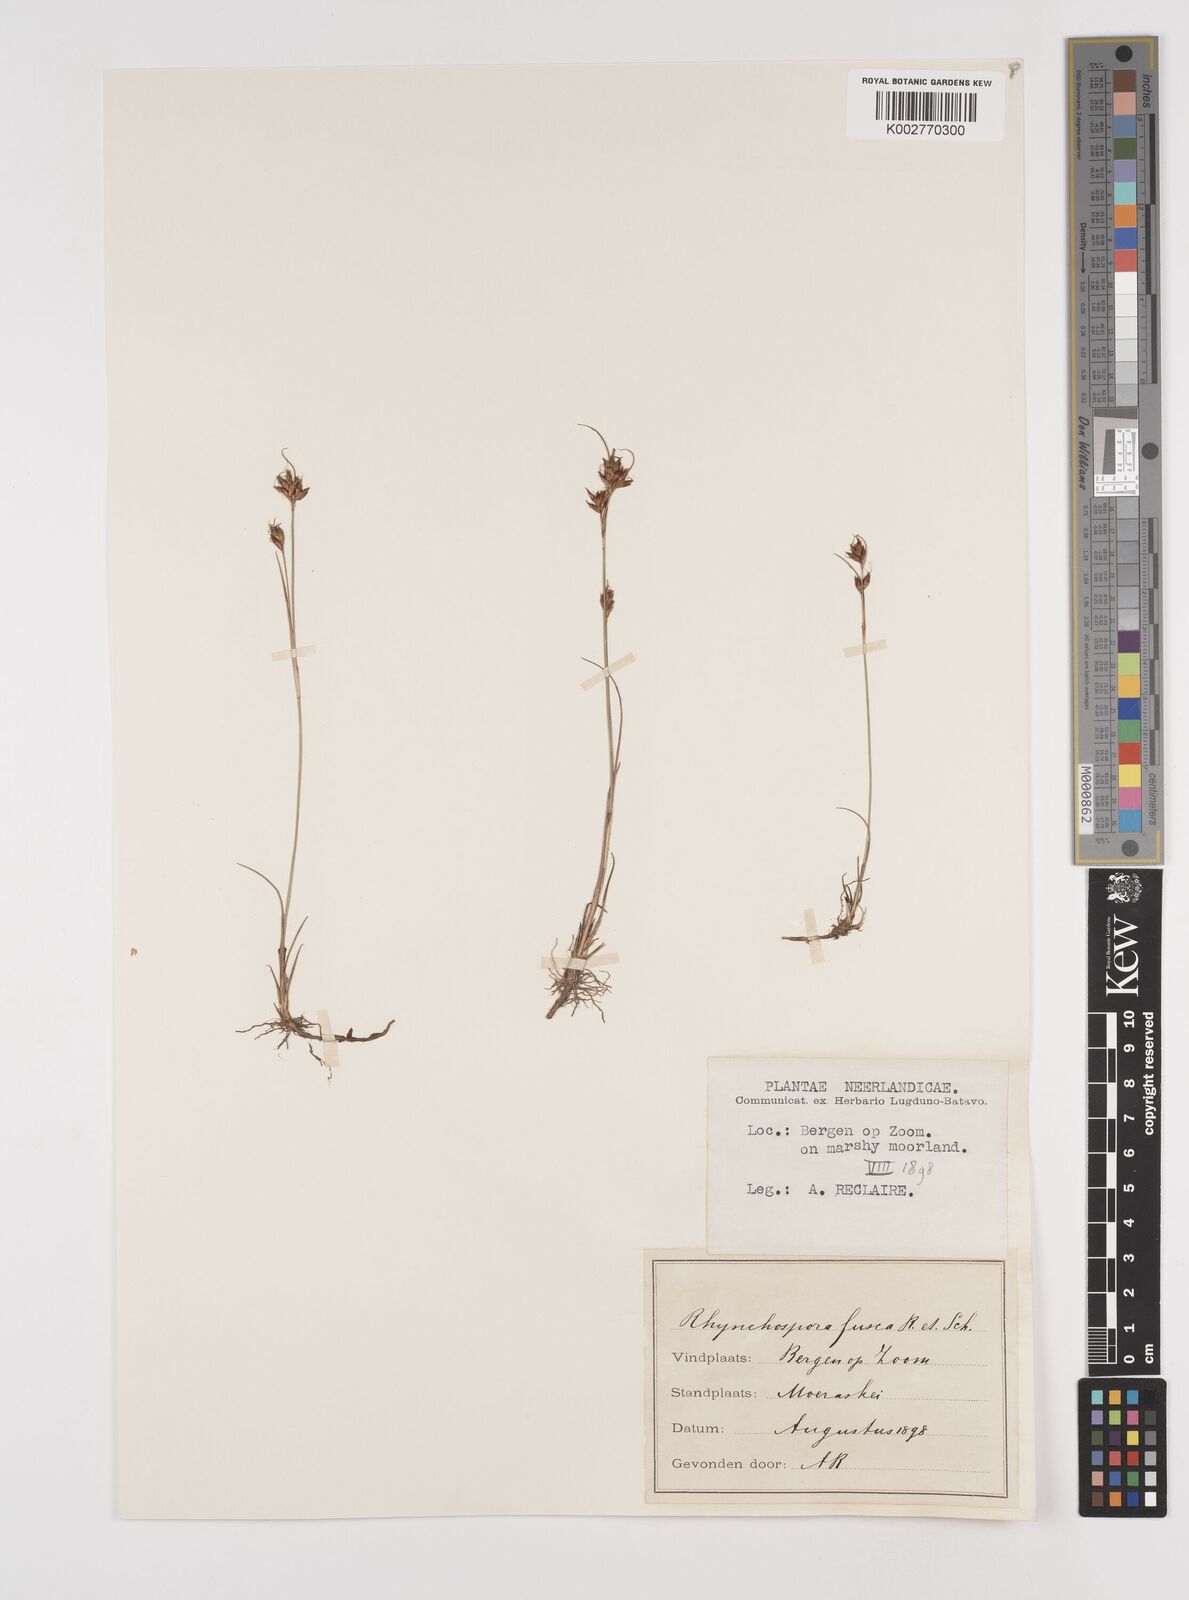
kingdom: Plantae
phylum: Tracheophyta
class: Liliopsida
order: Poales
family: Cyperaceae
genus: Rhynchospora
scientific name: Rhynchospora fusca
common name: Brown beak-sedge
